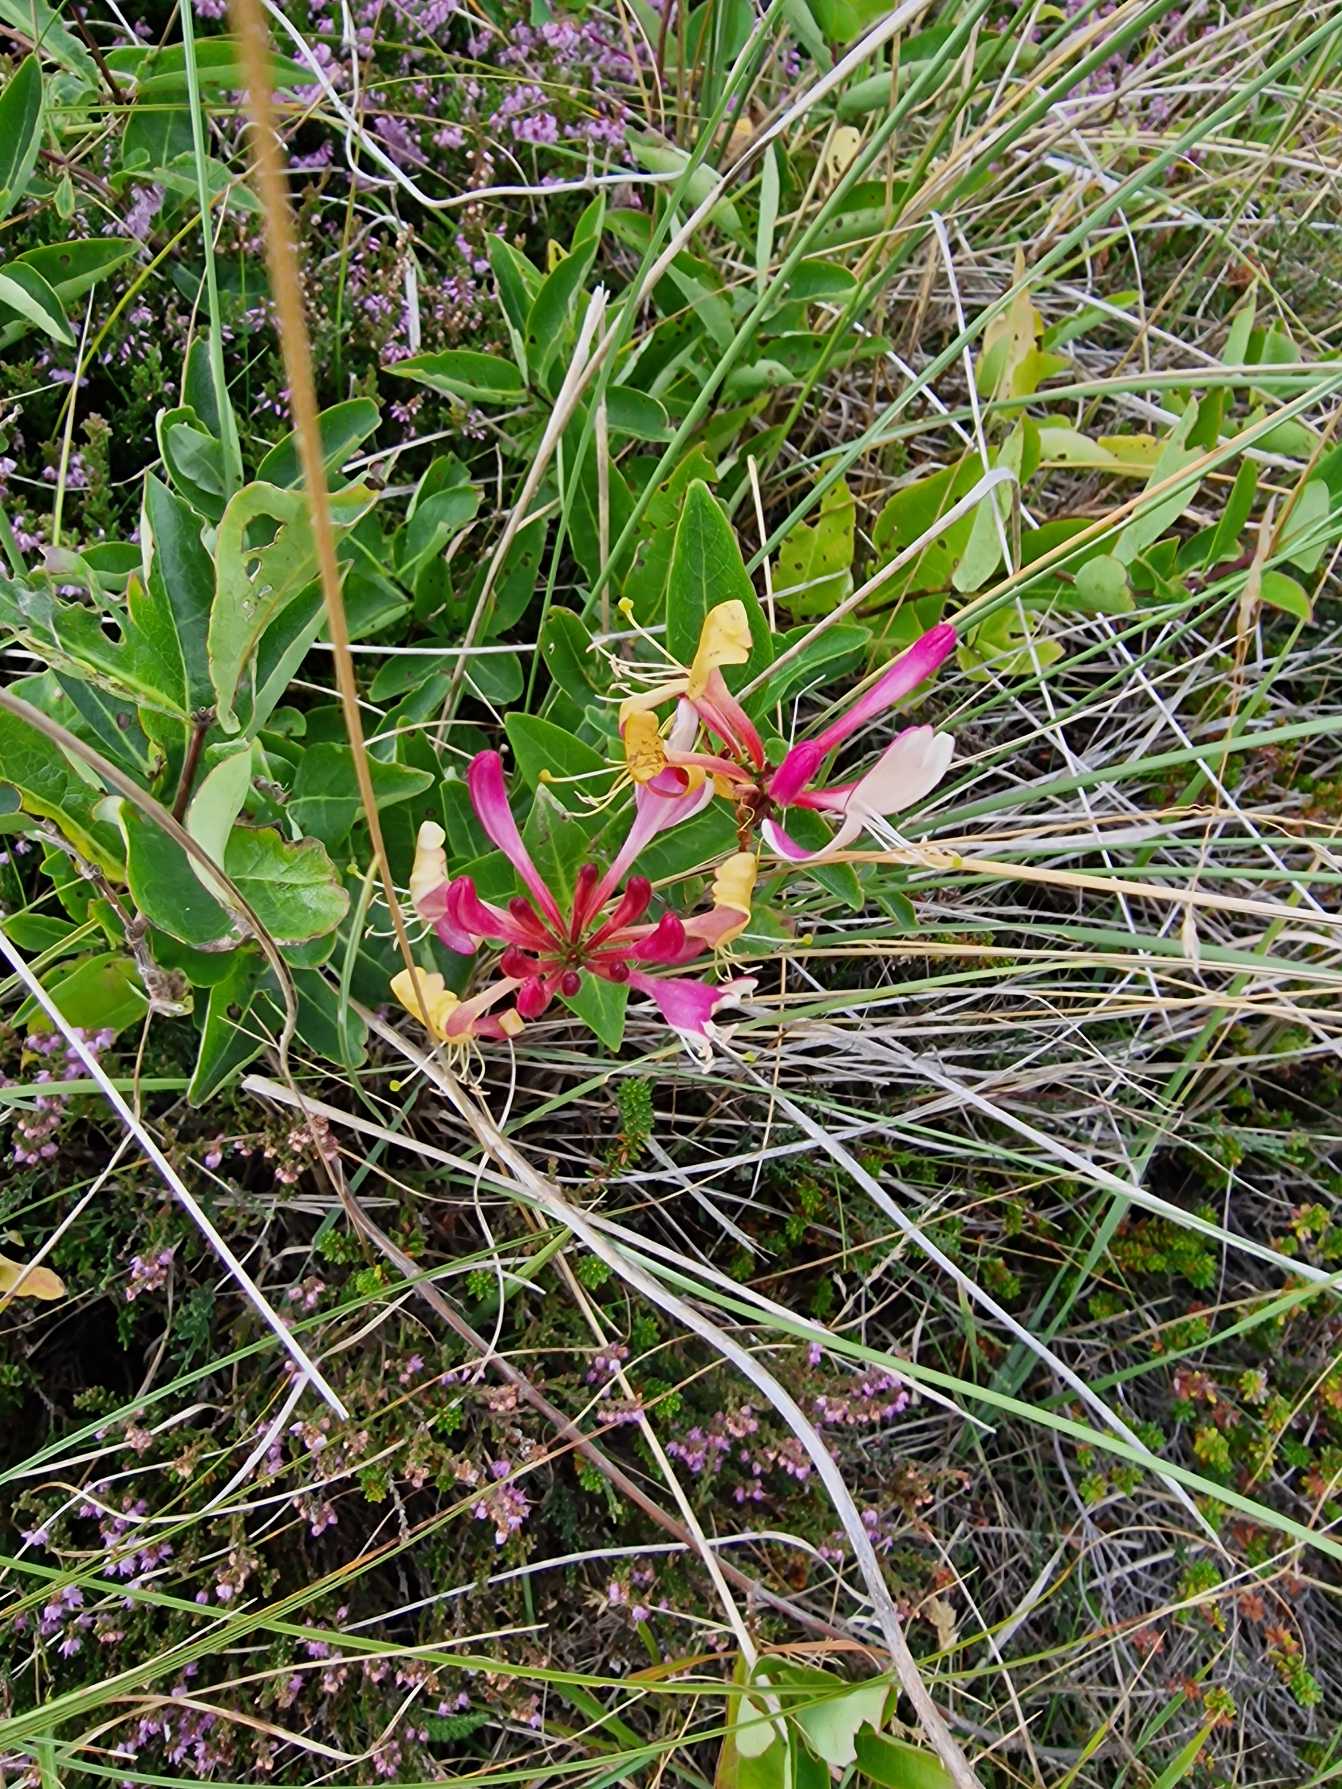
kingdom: Plantae
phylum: Tracheophyta
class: Magnoliopsida
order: Dipsacales
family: Caprifoliaceae
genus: Lonicera
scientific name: Lonicera periclymenum
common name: Almindelig gedeblad
